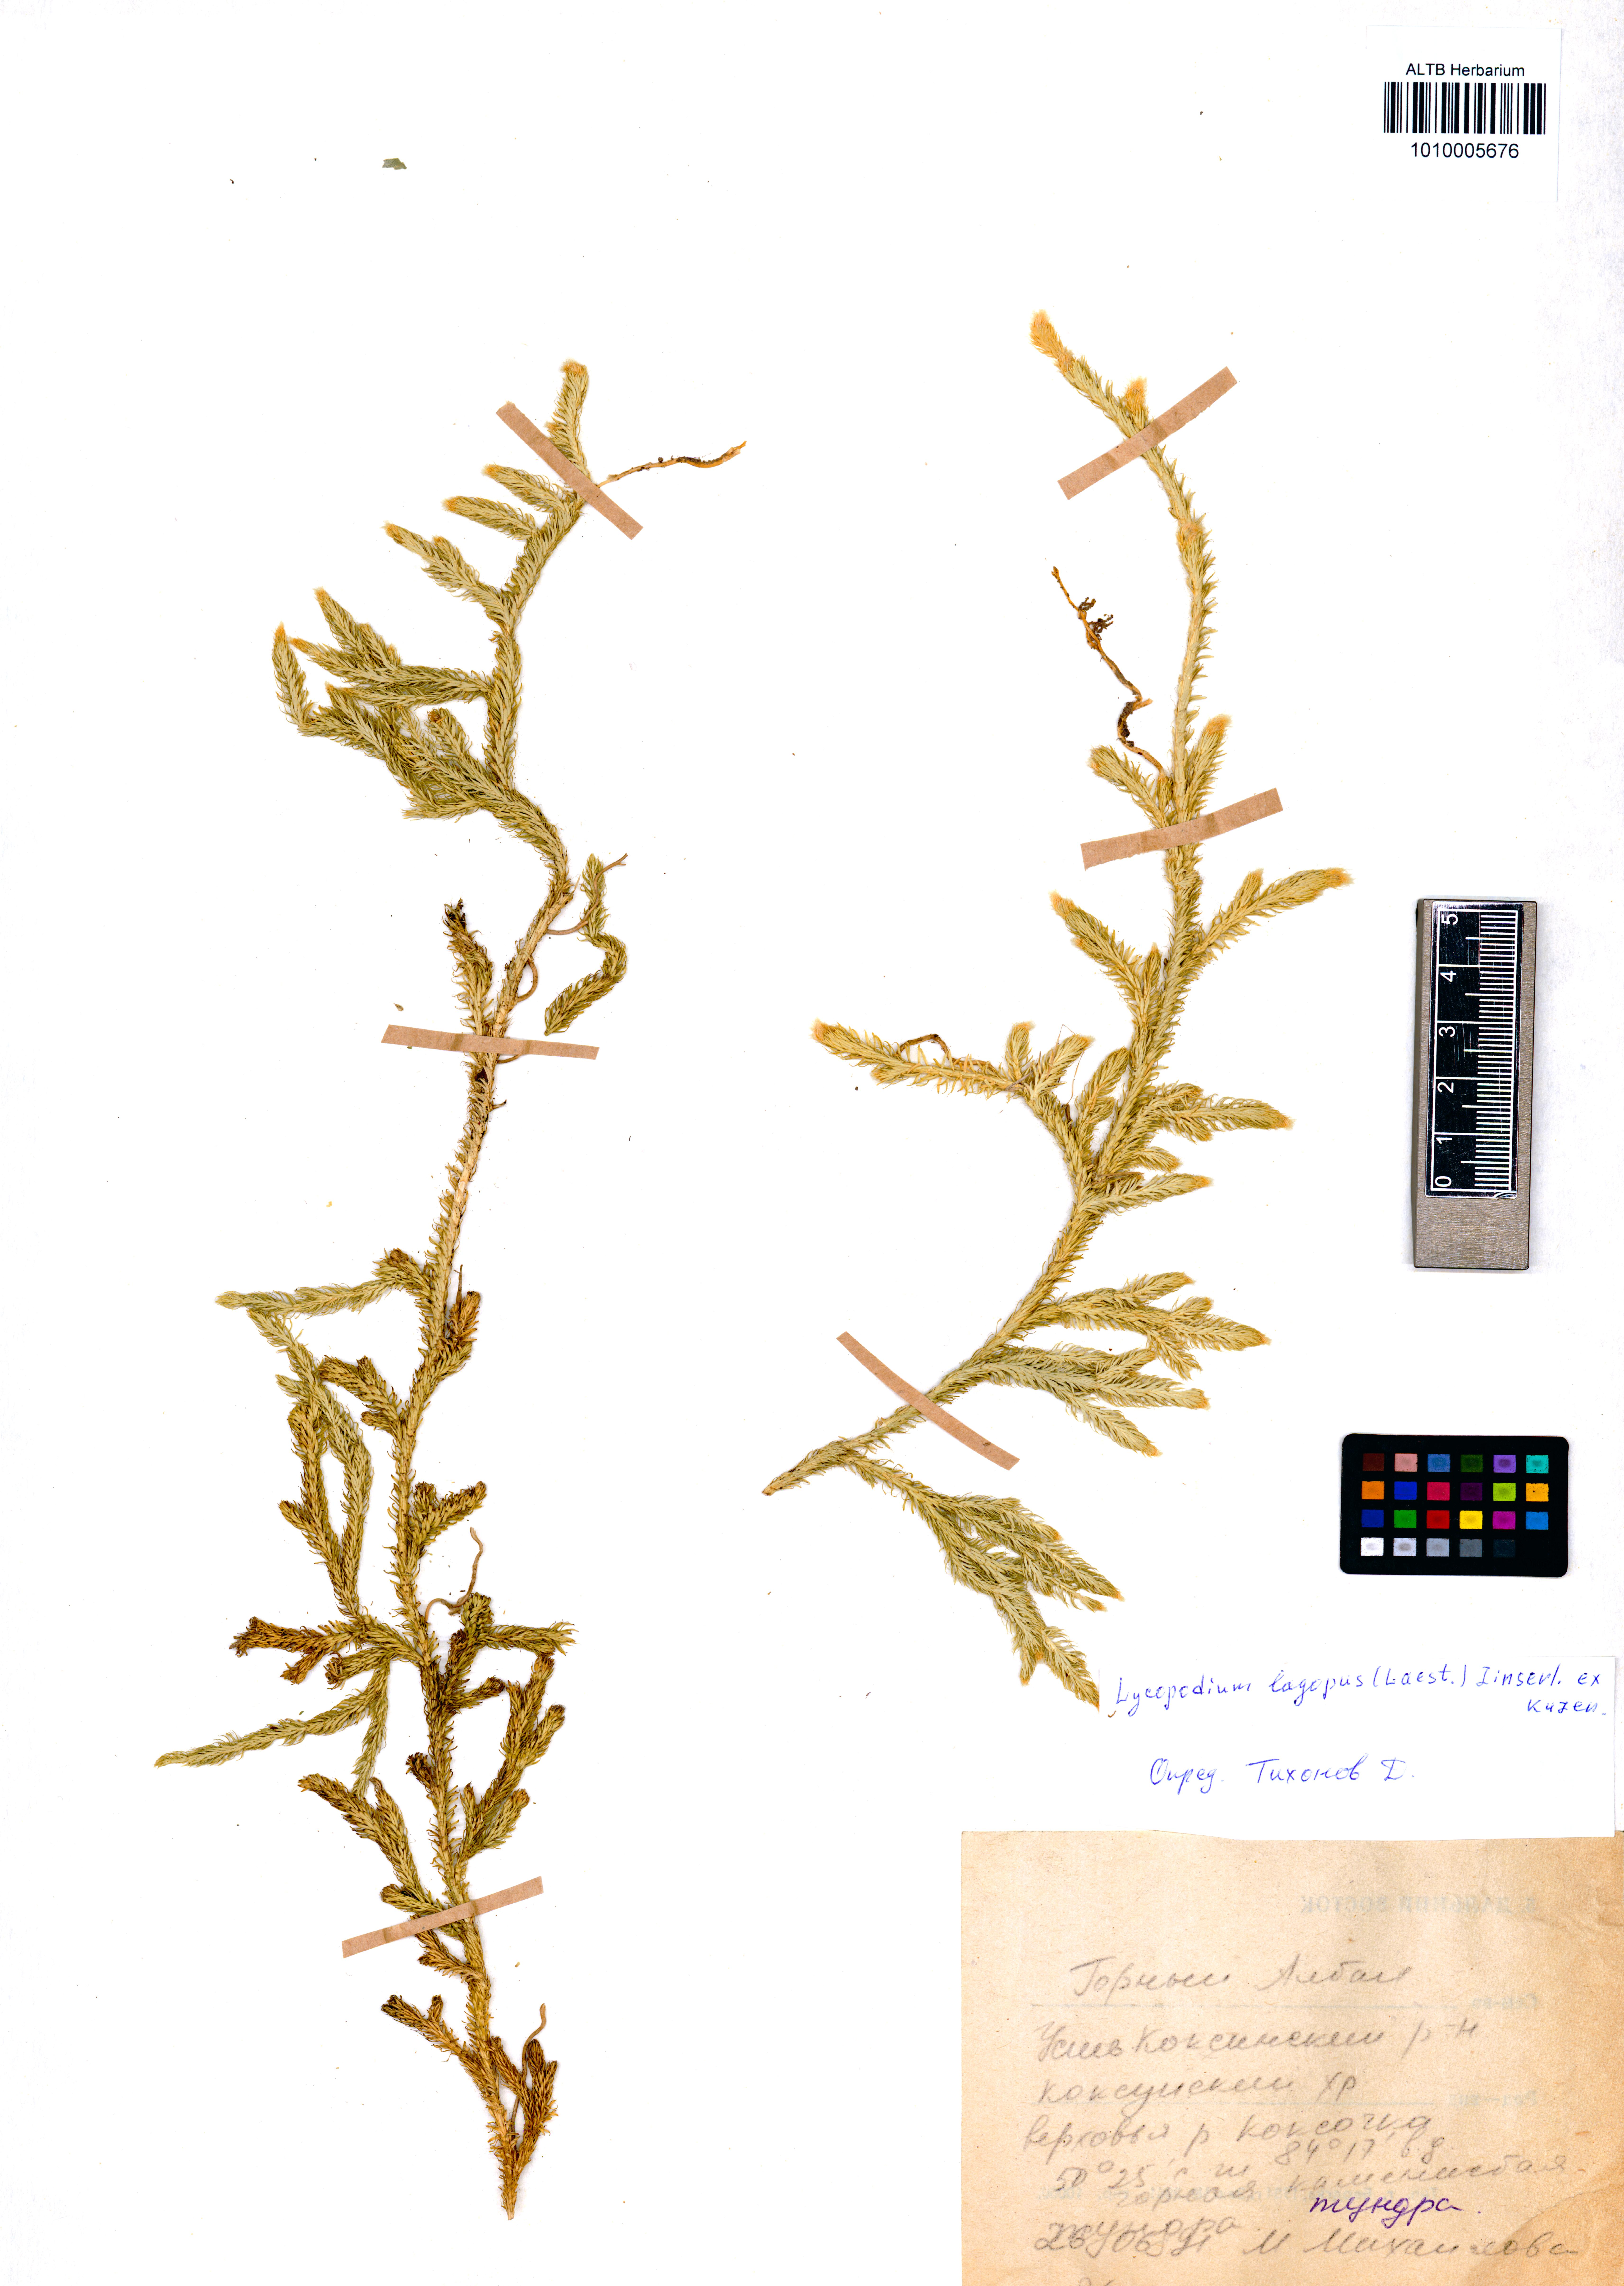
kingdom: Plantae
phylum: Tracheophyta
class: Lycopodiopsida
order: Lycopodiales
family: Lycopodiaceae
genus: Lycopodium
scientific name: Lycopodium lagopus
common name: One-cone clubmoss
